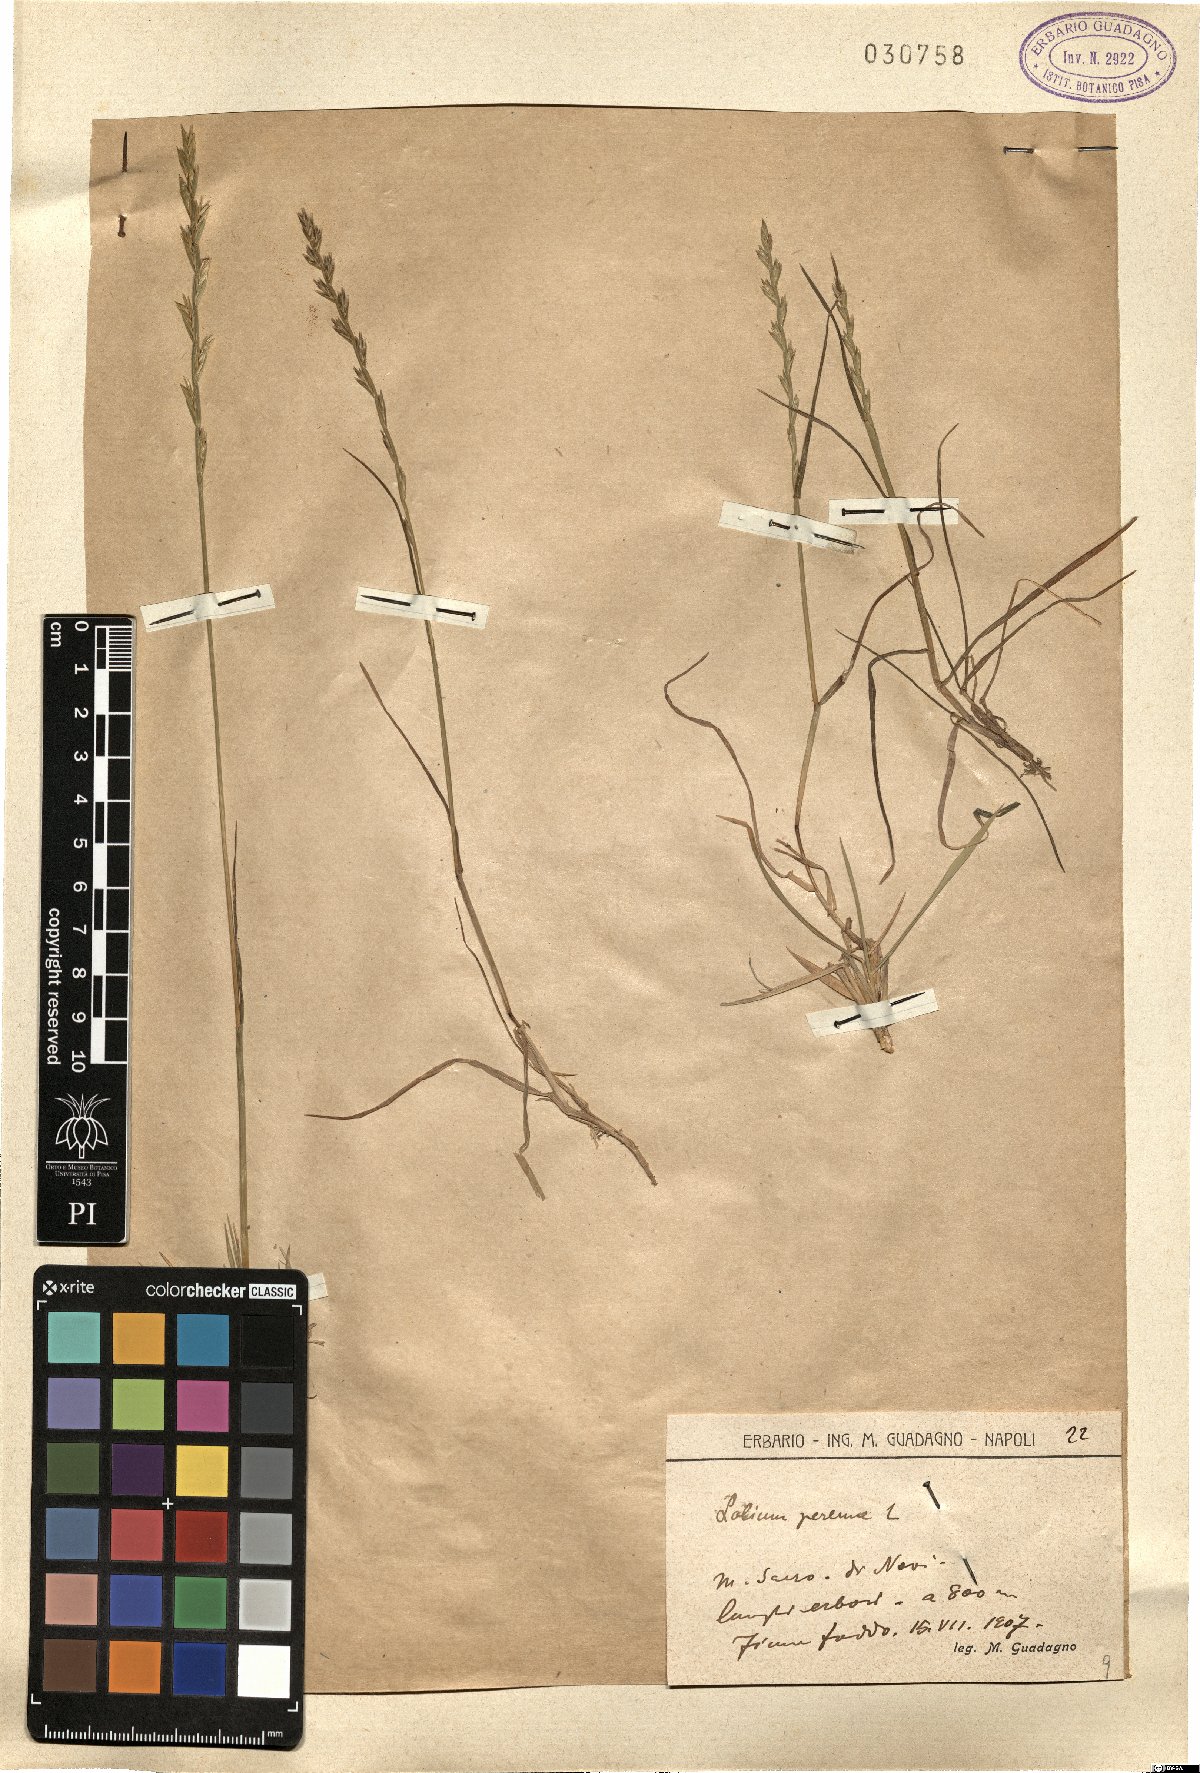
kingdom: Plantae
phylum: Tracheophyta
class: Liliopsida
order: Poales
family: Poaceae
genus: Lolium
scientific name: Lolium perenne
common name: Perennial ryegrass
